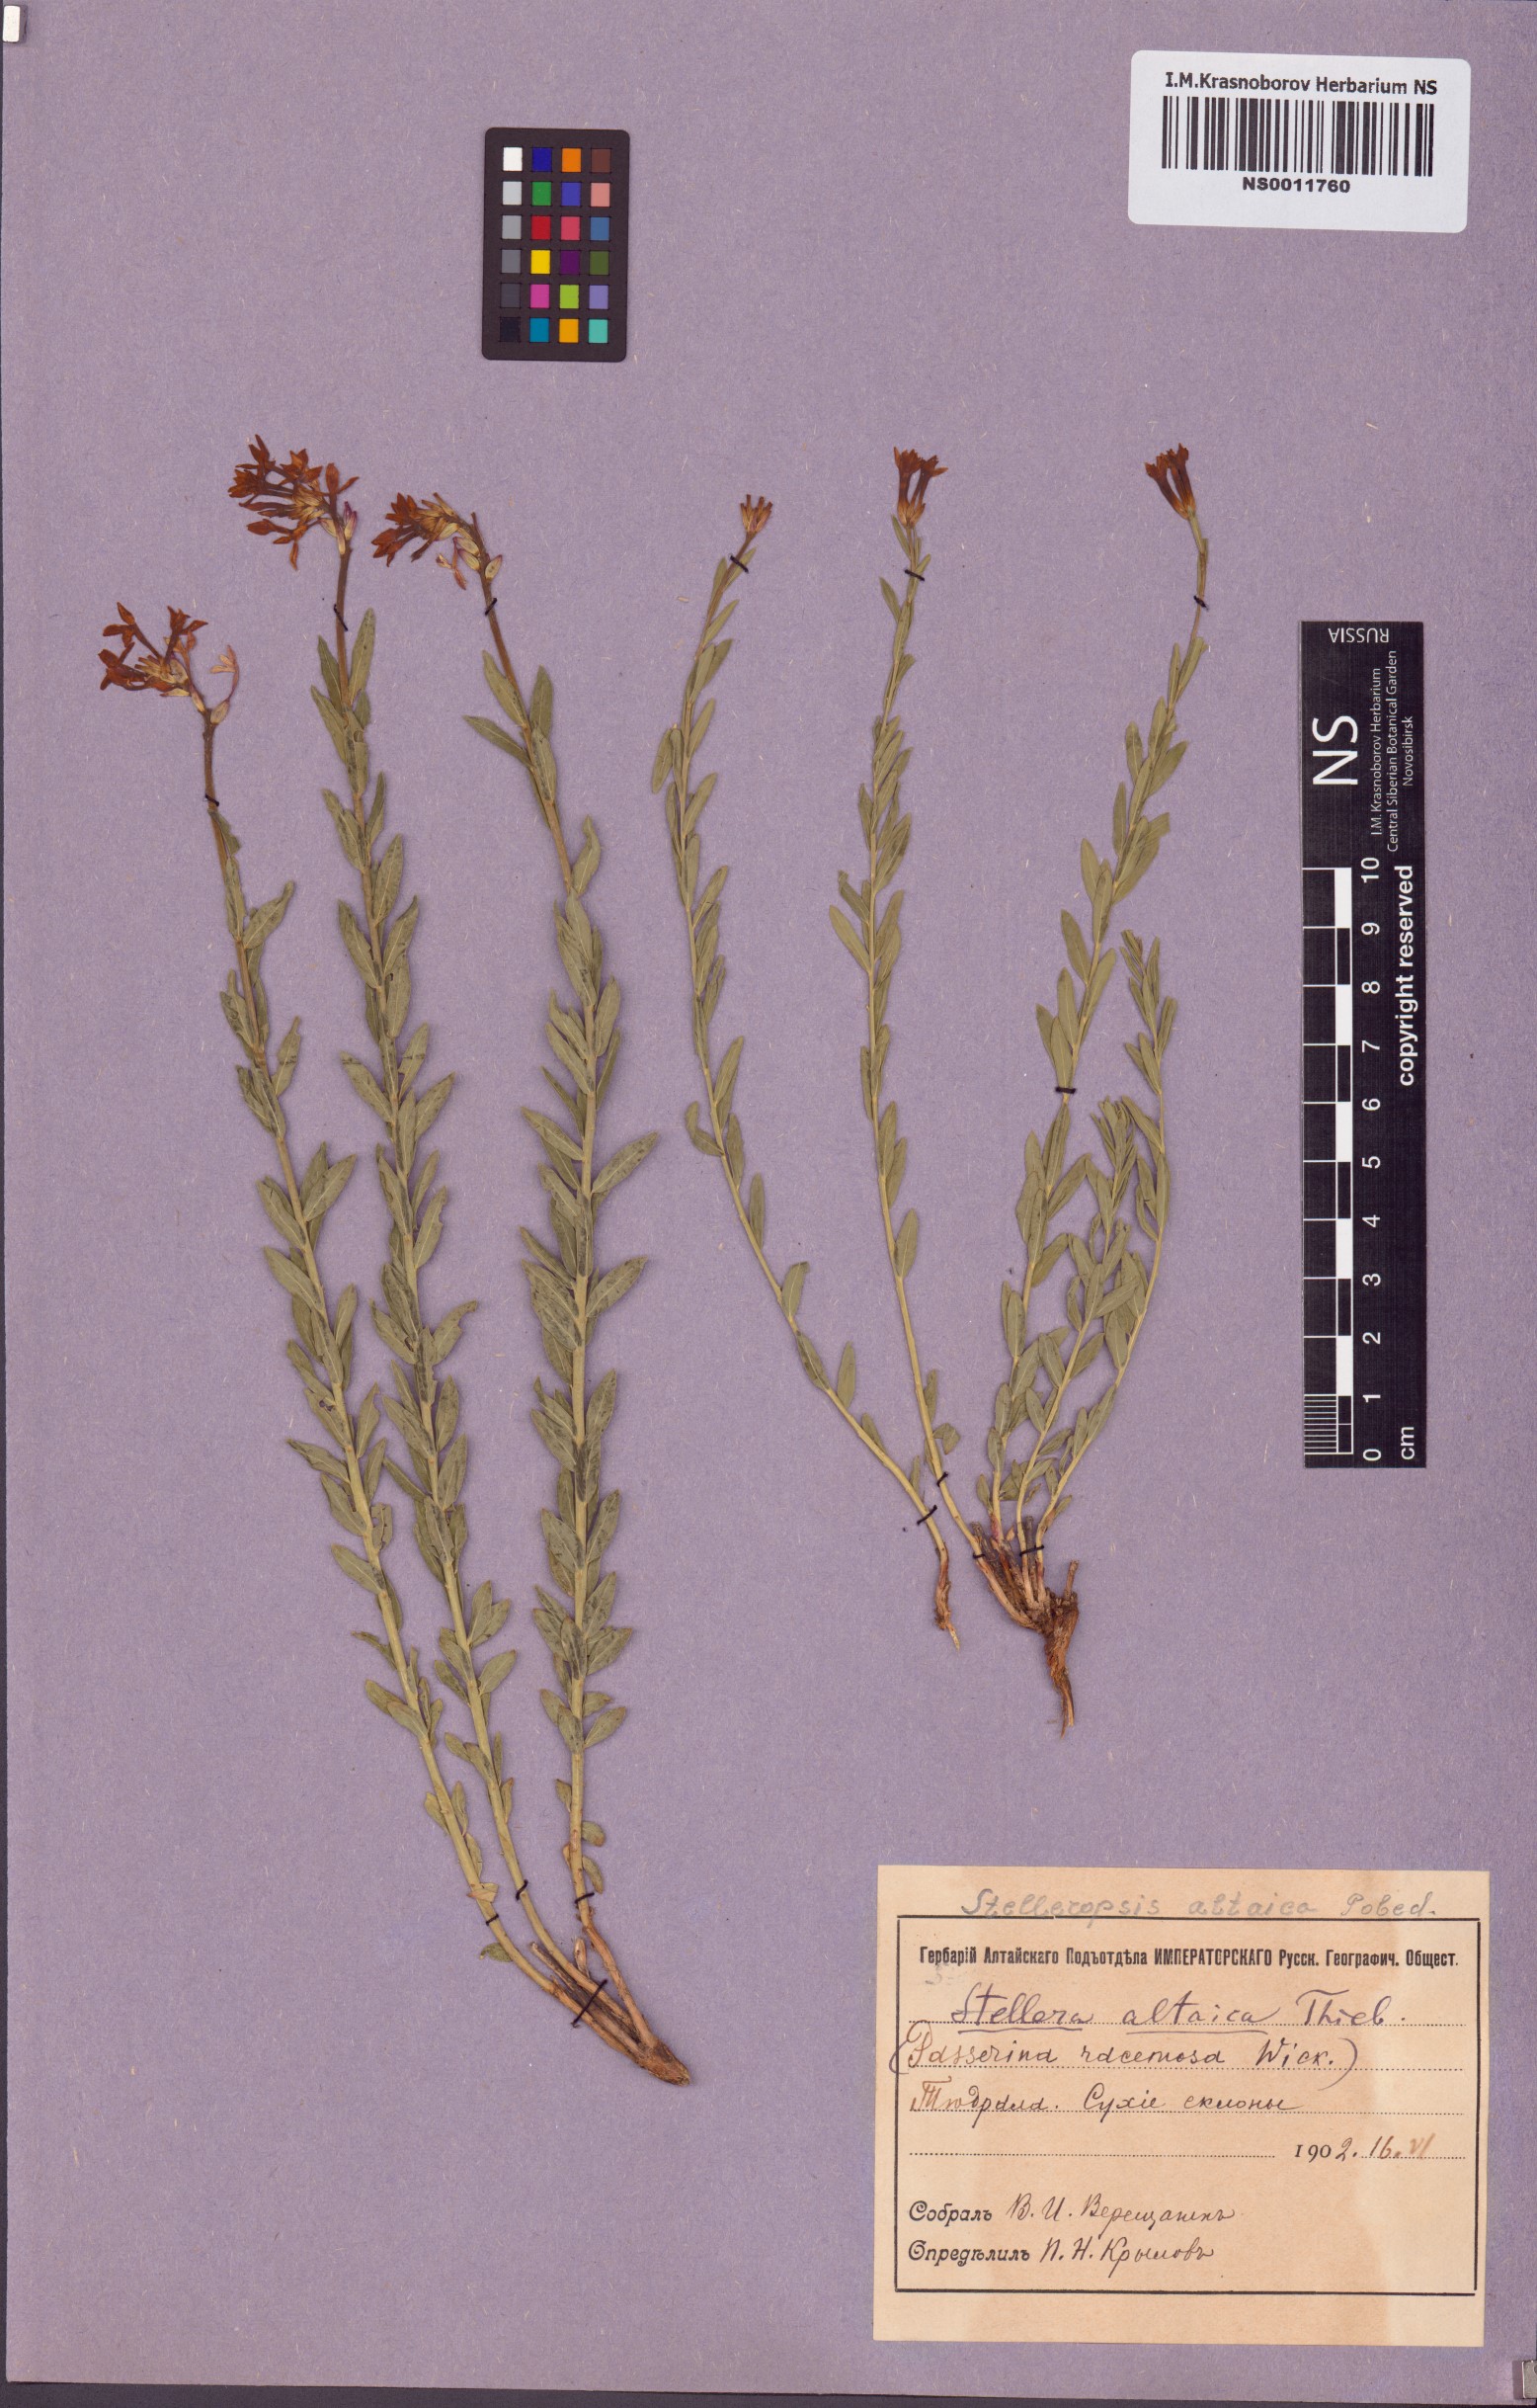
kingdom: Plantae
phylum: Tracheophyta
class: Magnoliopsida
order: Malvales
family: Thymelaeaceae
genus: Diarthron
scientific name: Diarthron altaicum
